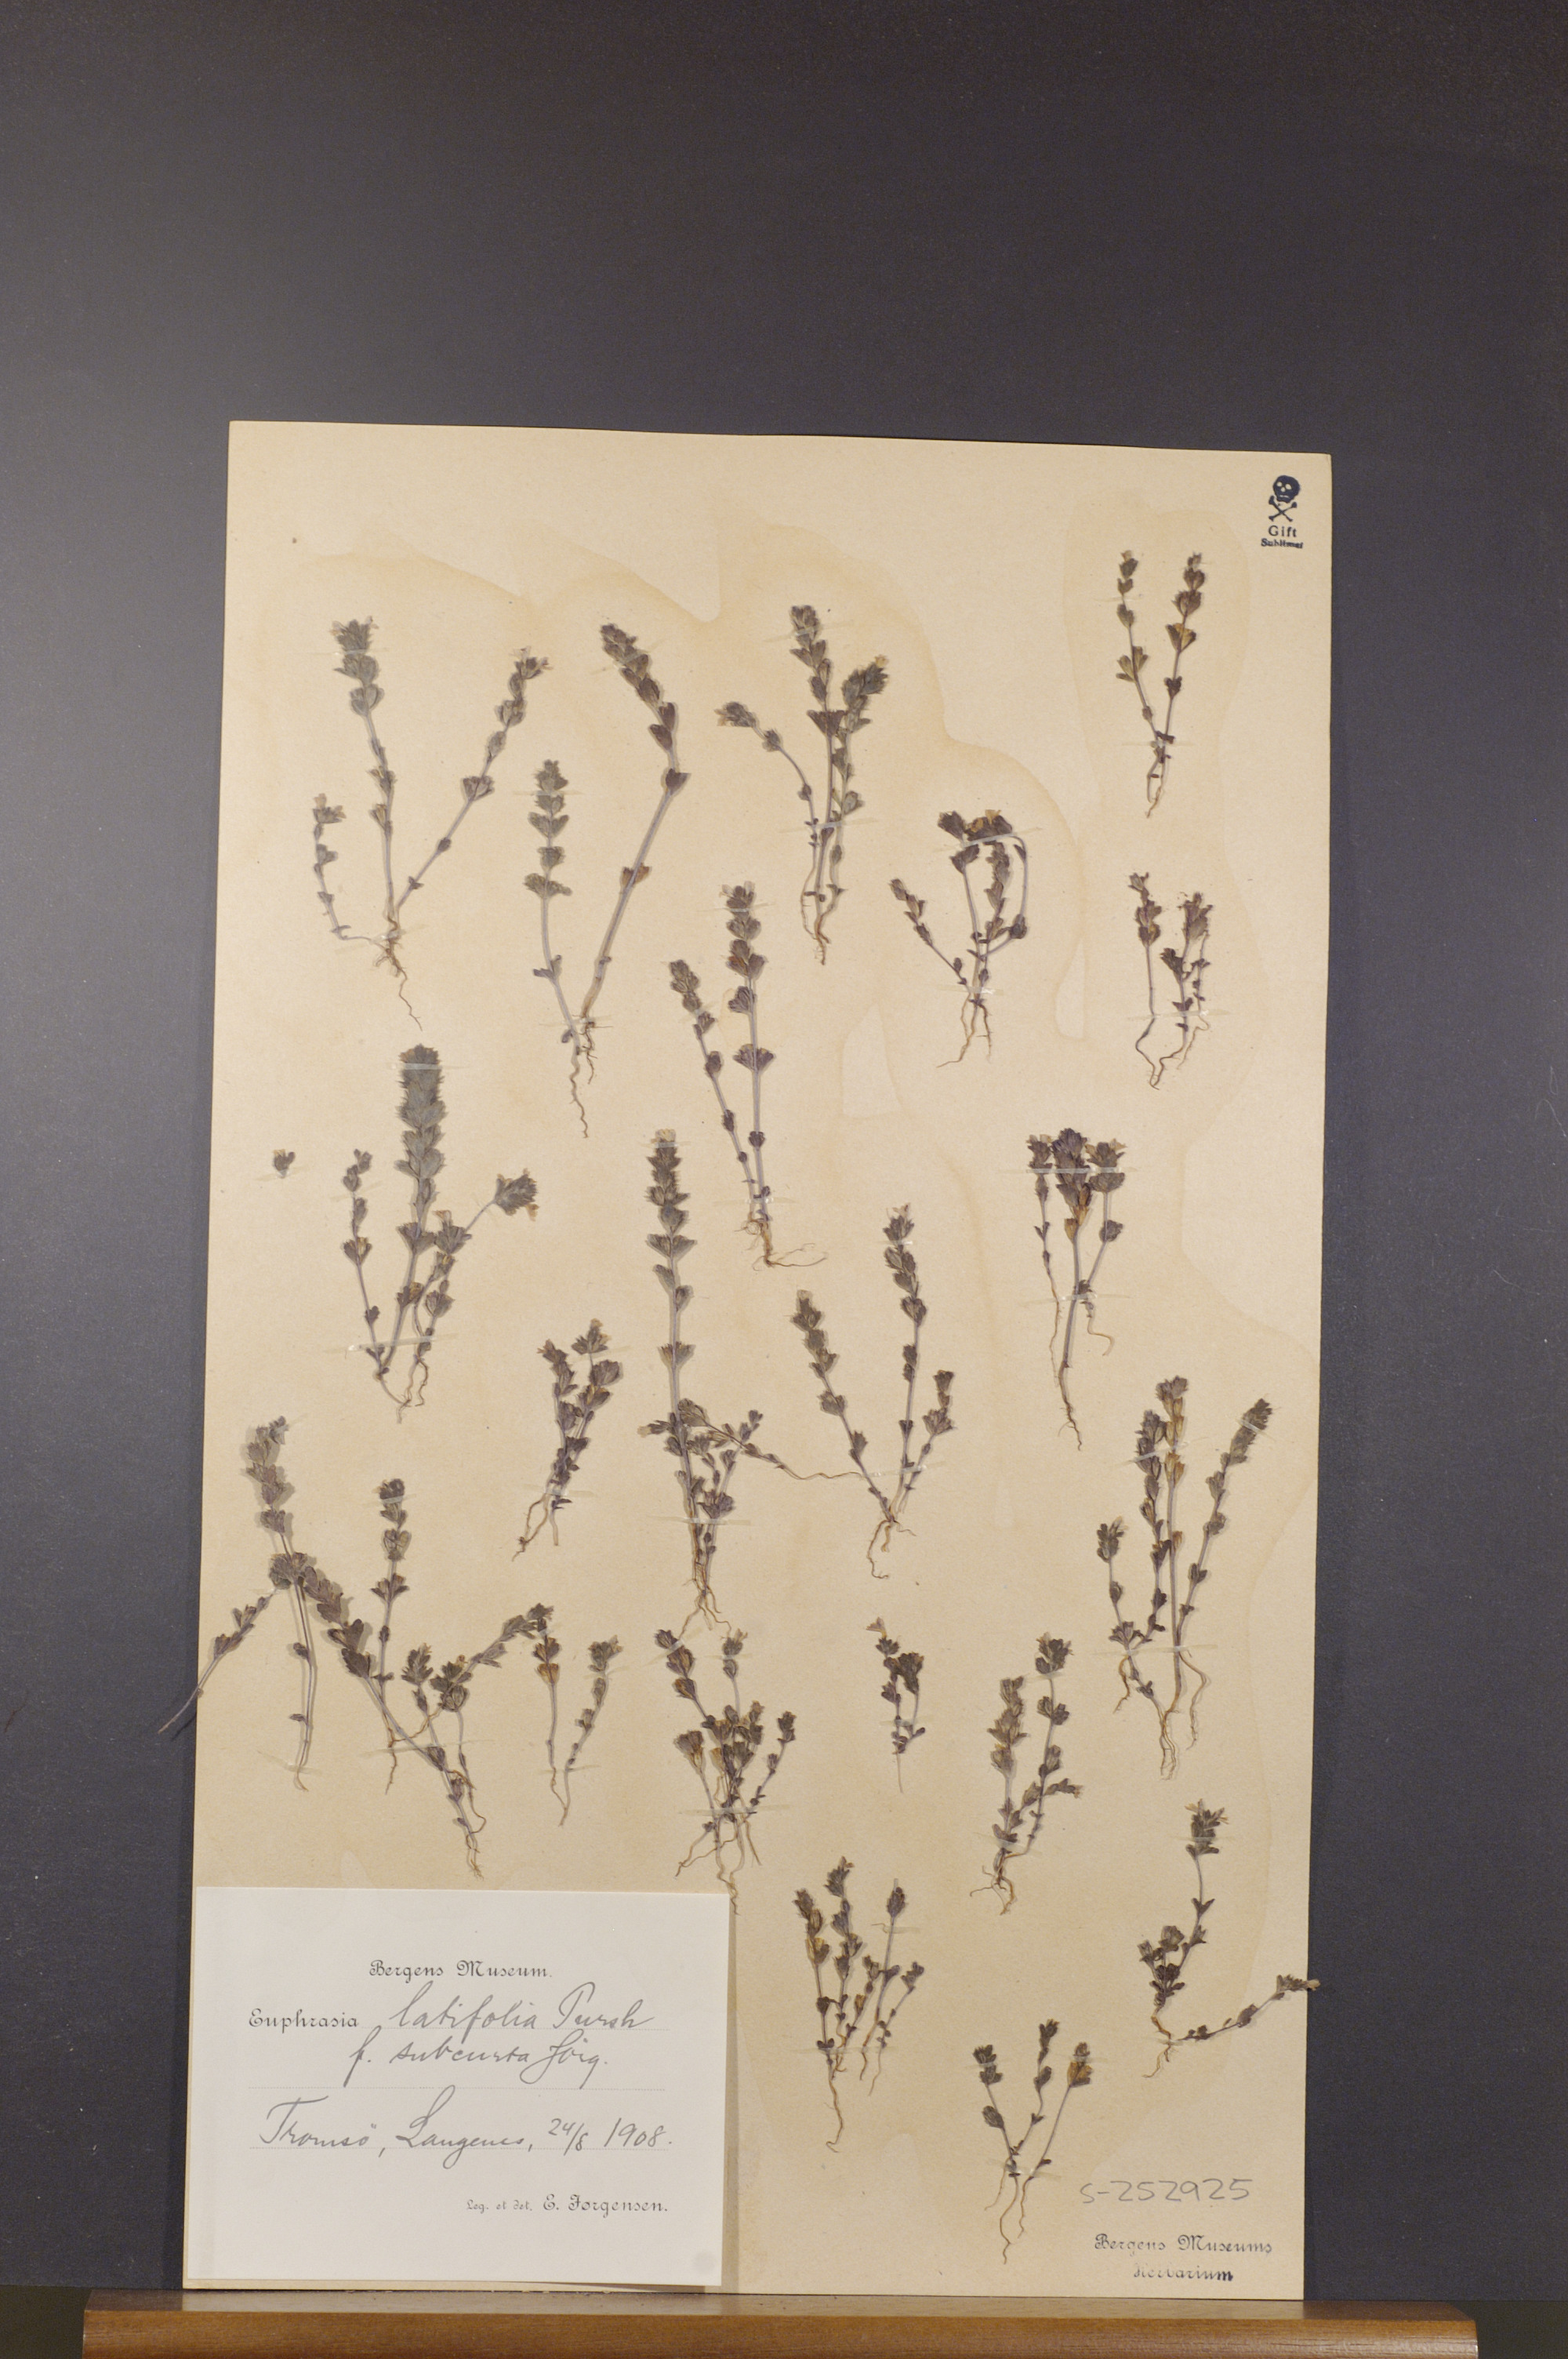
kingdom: Plantae
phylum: Tracheophyta
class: Magnoliopsida
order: Lamiales
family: Orobanchaceae
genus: Euphrasia
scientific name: Euphrasia wettsteinii
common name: Wettstein's eyebright
